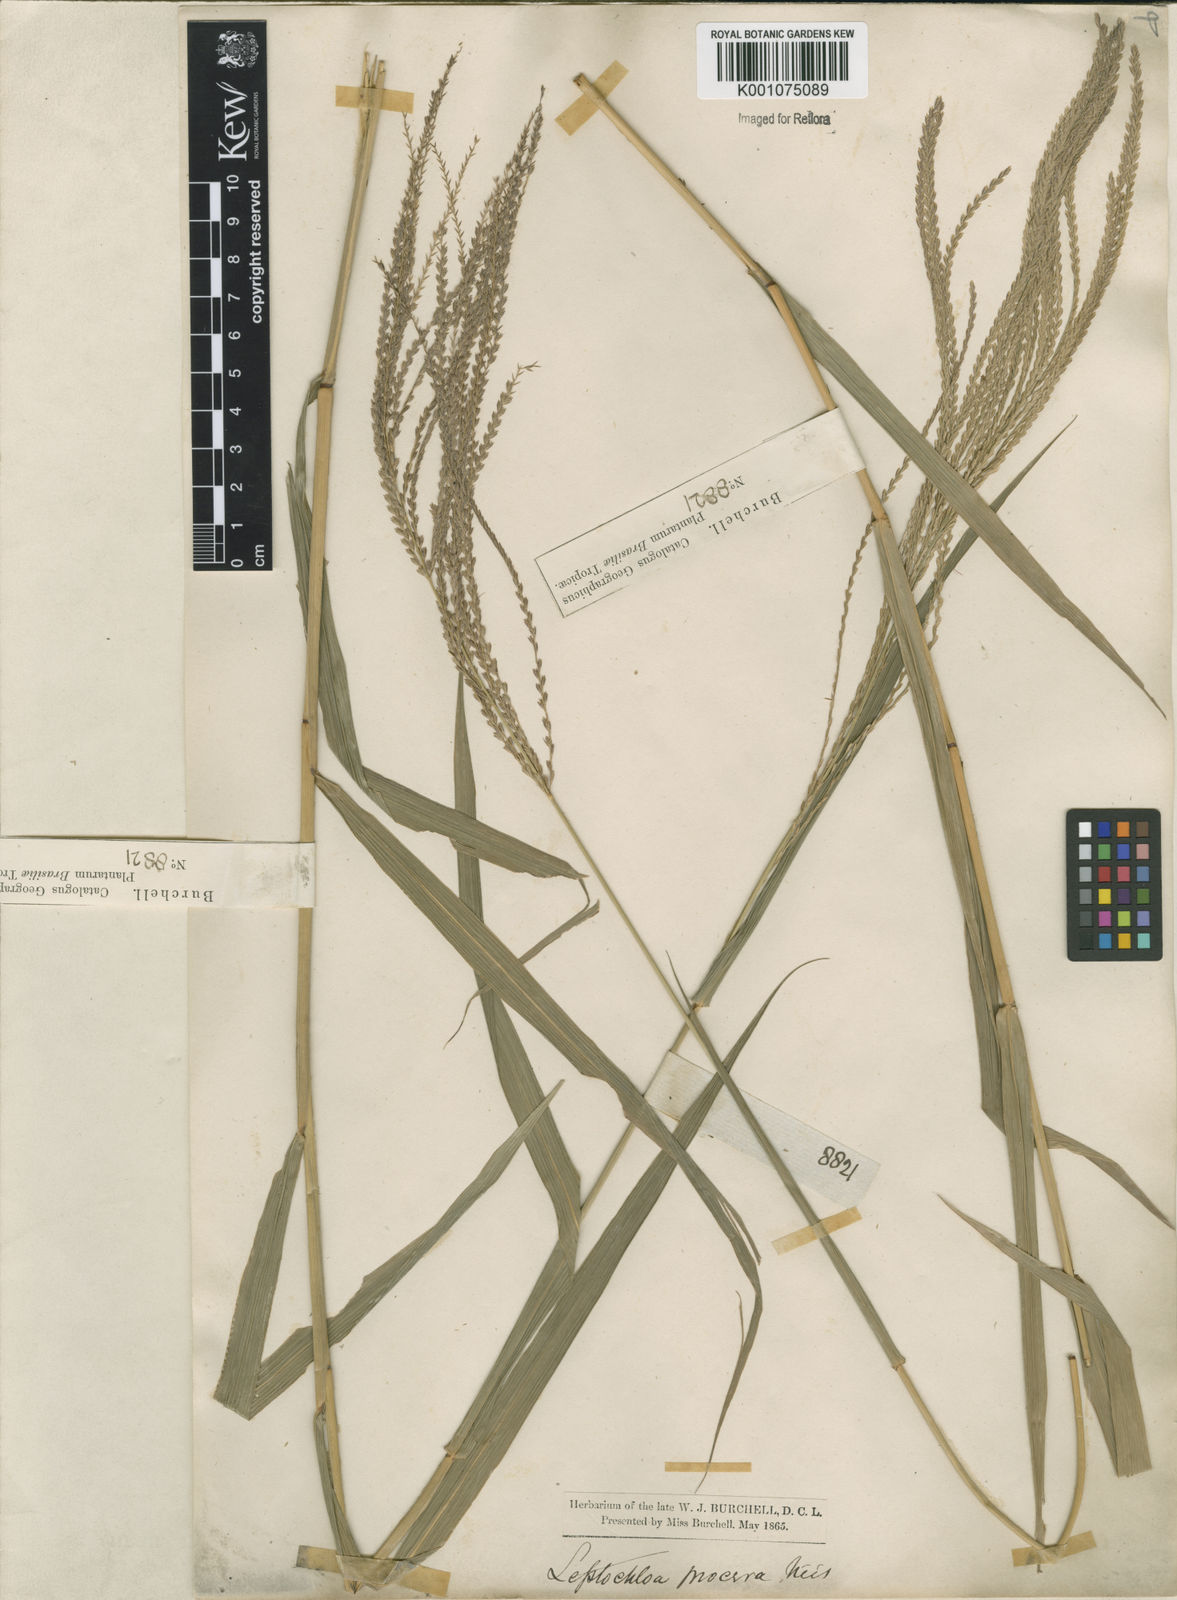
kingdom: Plantae
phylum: Tracheophyta
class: Liliopsida
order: Poales
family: Poaceae
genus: Leptochloa
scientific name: Leptochloa virgata
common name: Tropical sprangletop
